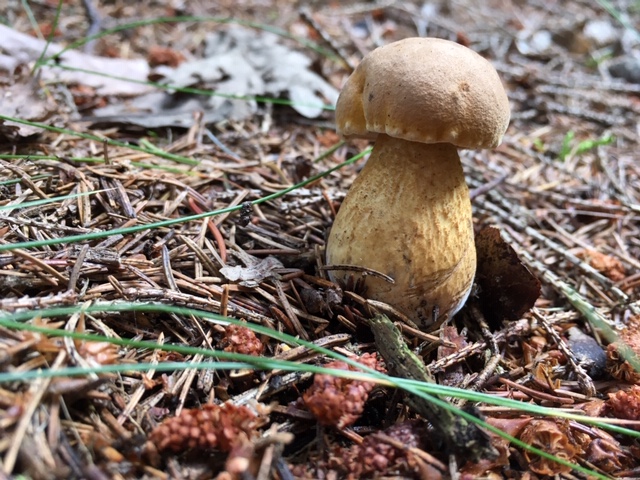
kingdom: Fungi
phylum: Basidiomycota
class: Agaricomycetes
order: Boletales
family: Boletaceae
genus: Tylopilus
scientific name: Tylopilus felleus
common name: galderørhat
